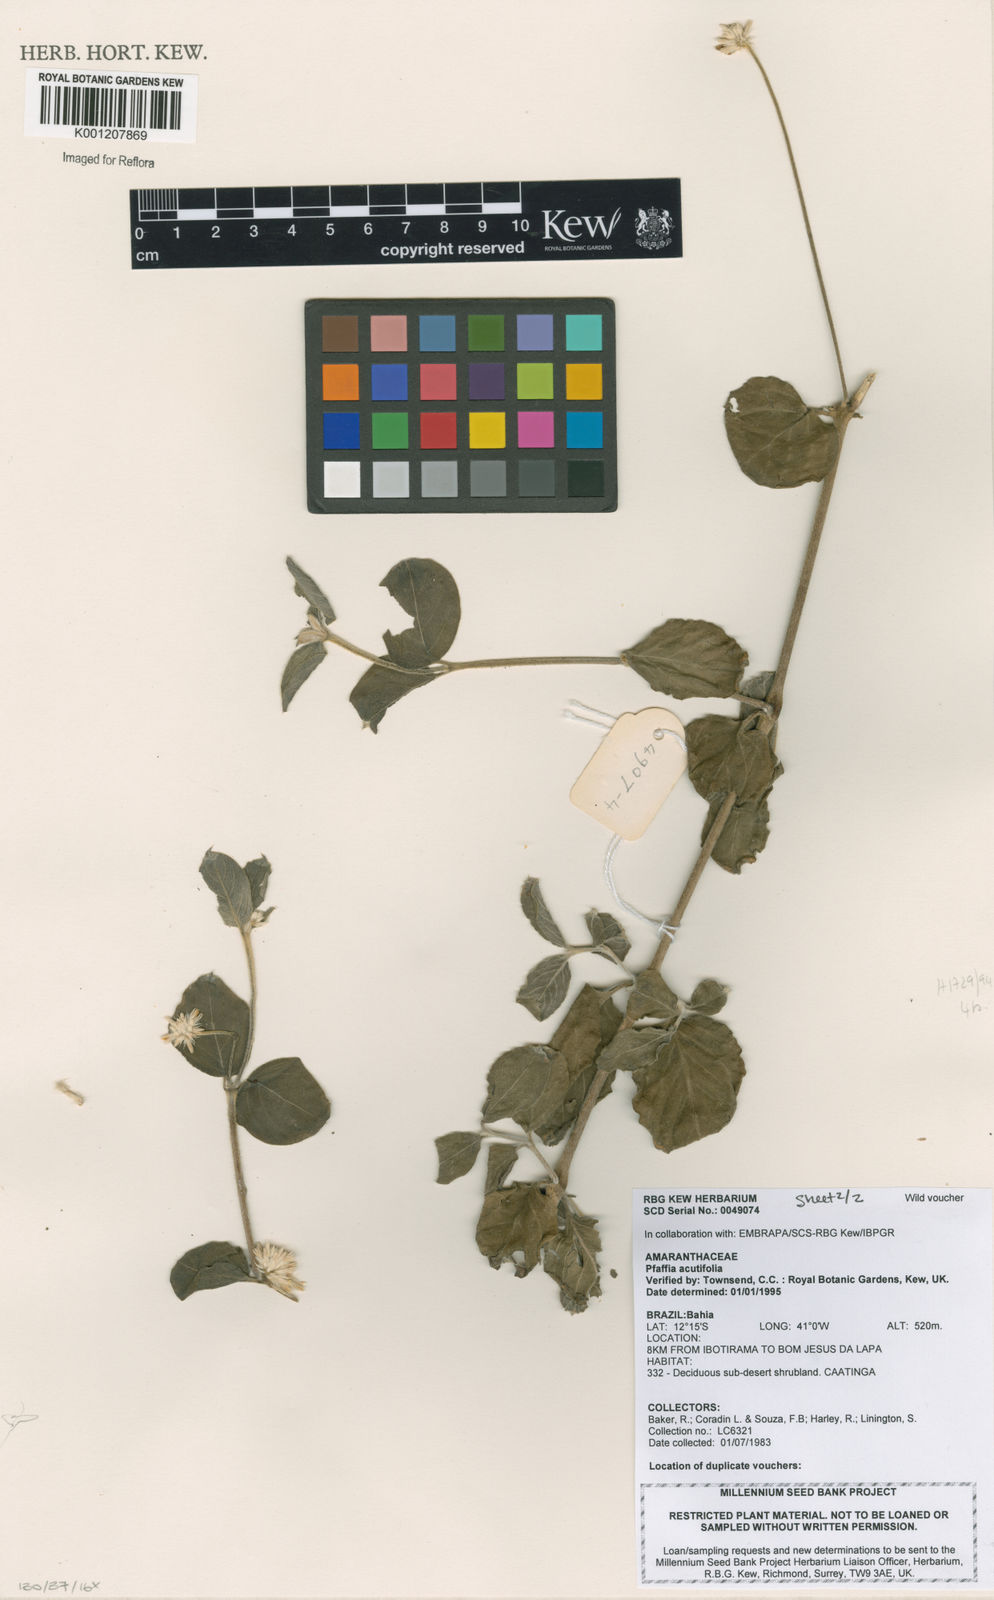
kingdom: Plantae
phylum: Tracheophyta
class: Magnoliopsida
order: Caryophyllales
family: Amaranthaceae
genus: Pfaffia
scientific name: Pfaffia
